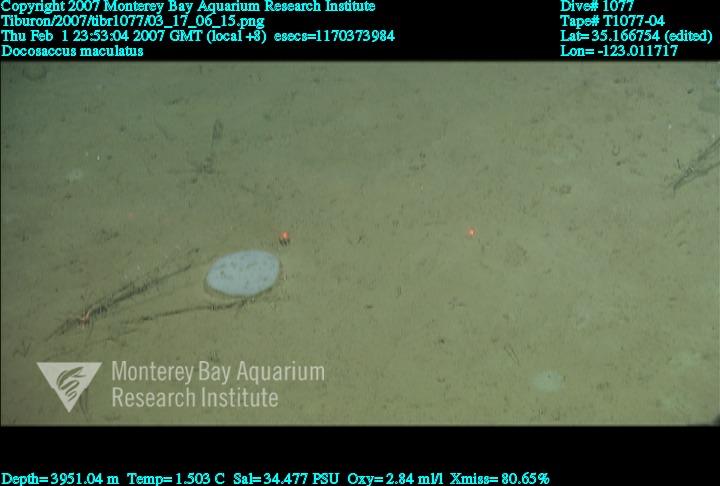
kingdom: Animalia
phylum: Porifera
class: Hexactinellida
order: Lyssacinosida
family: Euplectellidae
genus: Docosaccus
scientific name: Docosaccus maculatus
